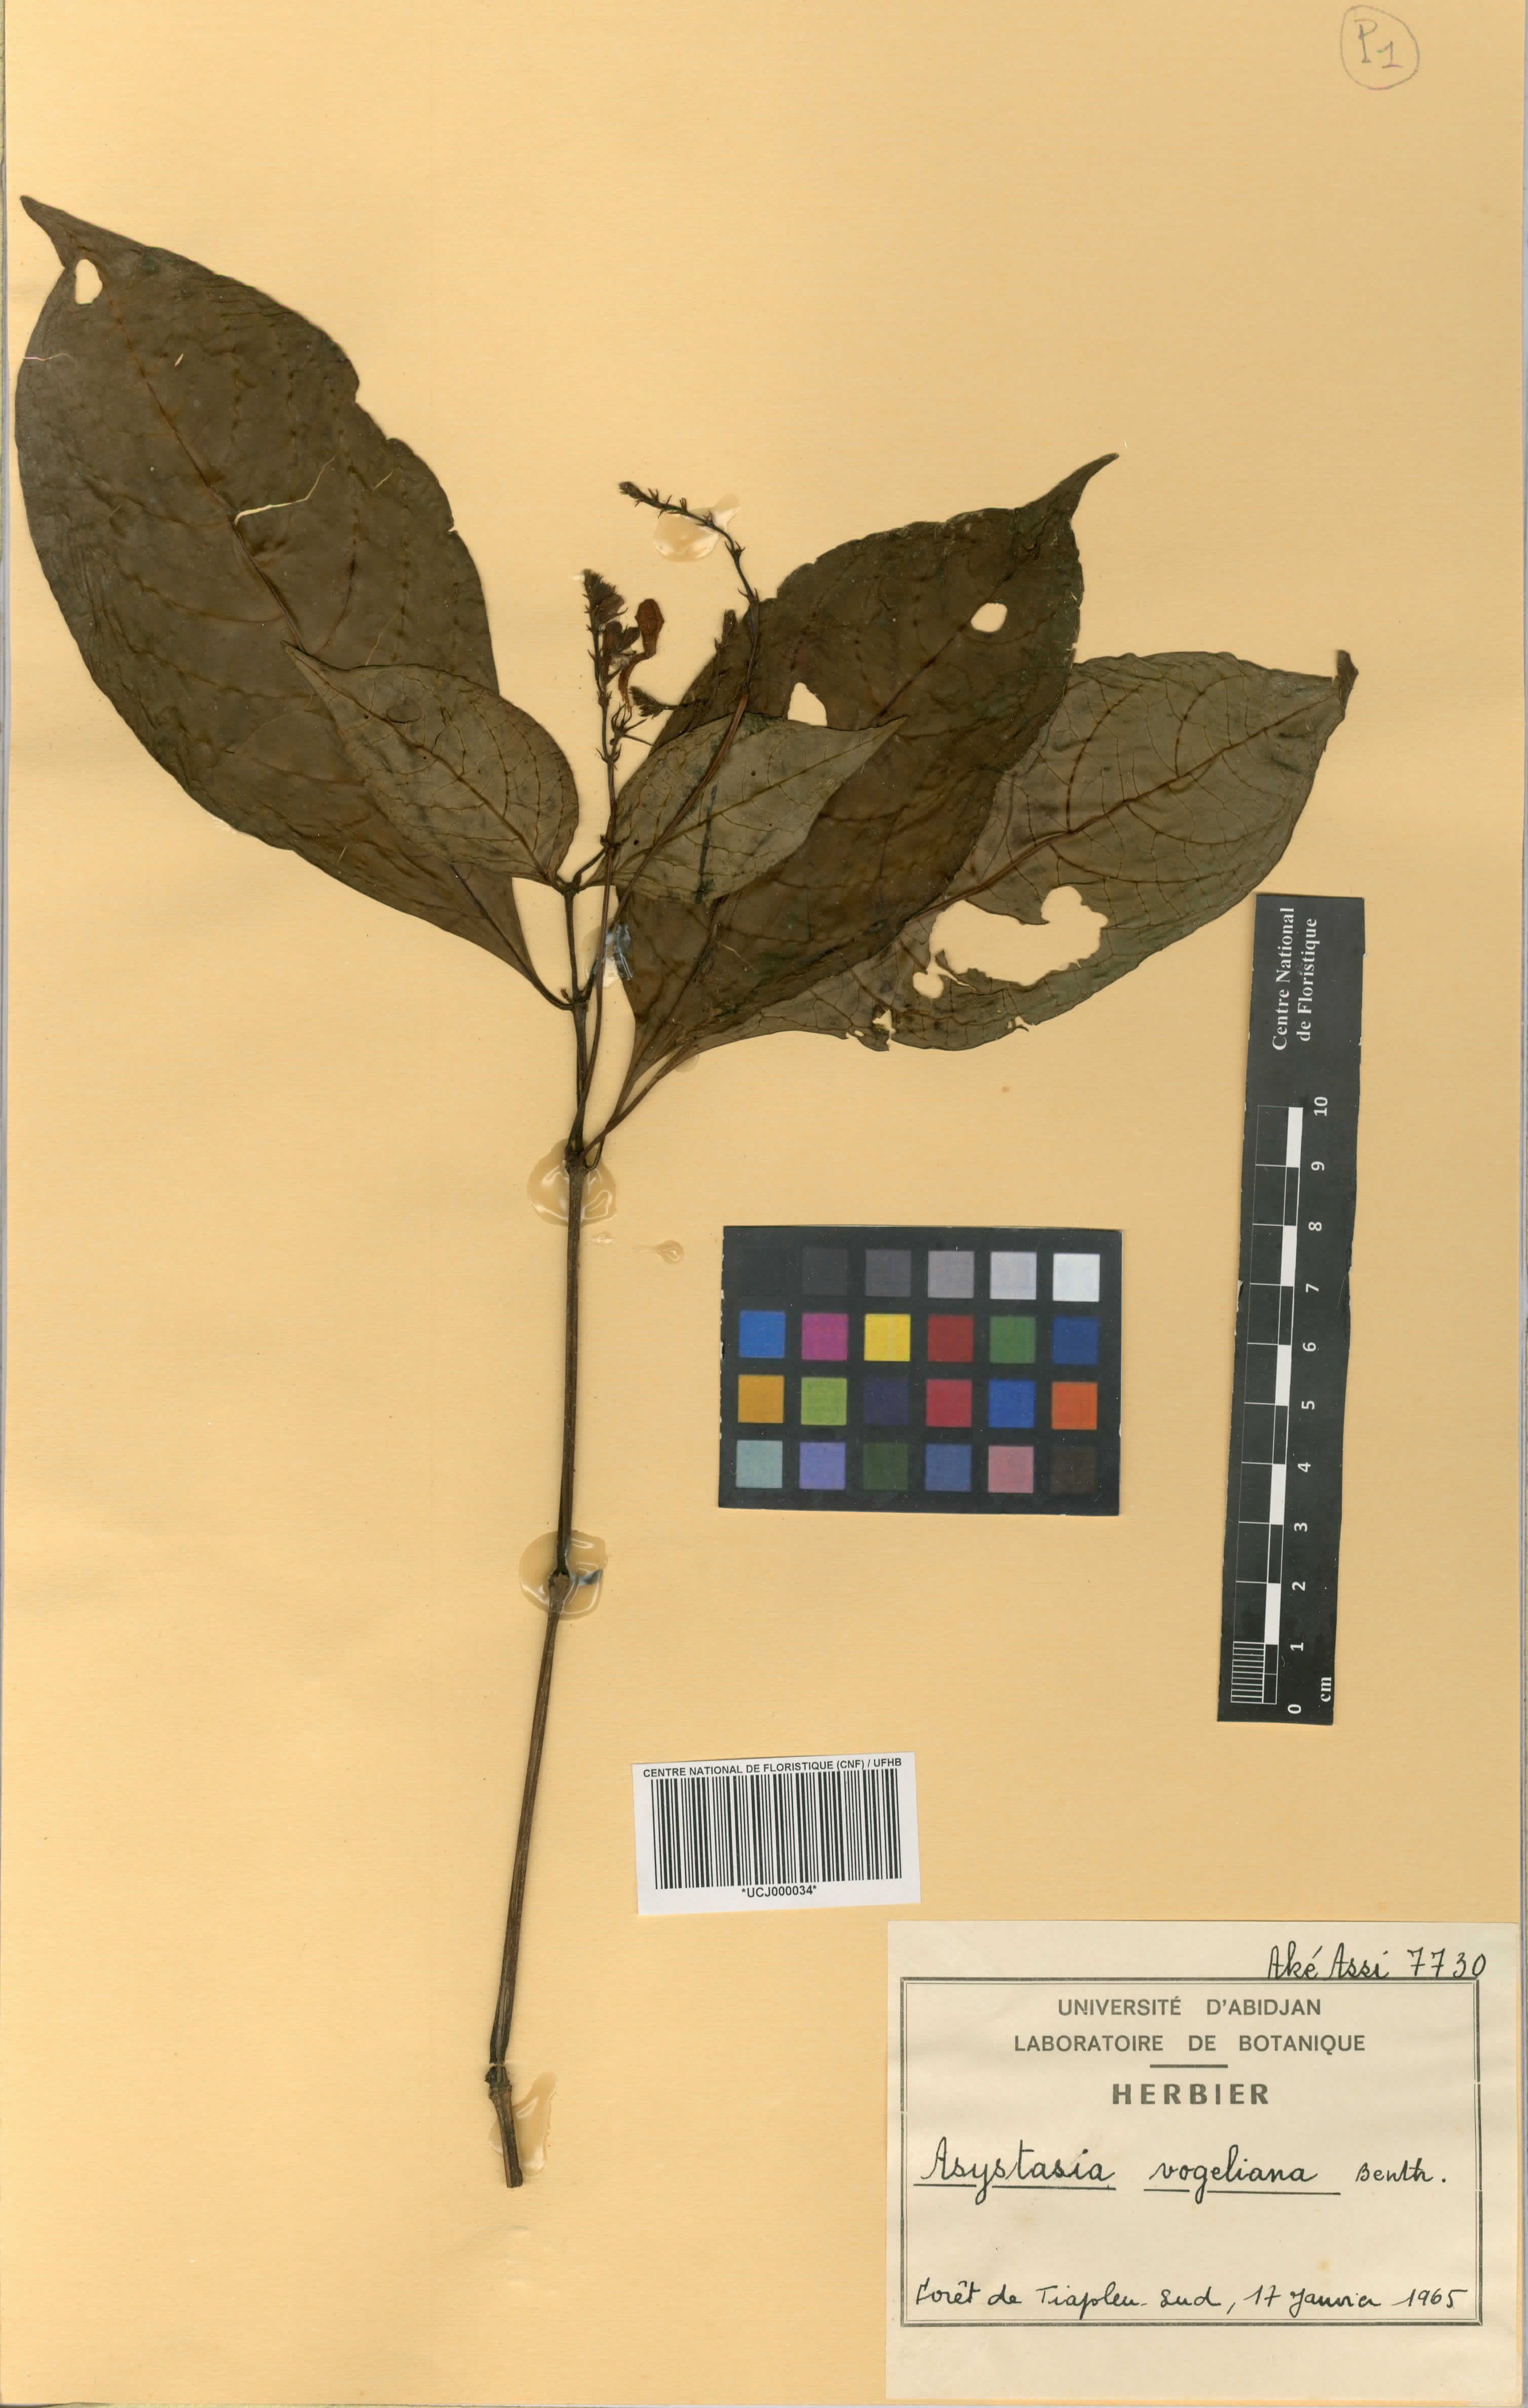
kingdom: Plantae
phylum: Tracheophyta
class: Magnoliopsida
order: Lamiales
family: Acanthaceae
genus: Asystasia
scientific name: Asystasia vogeliana
